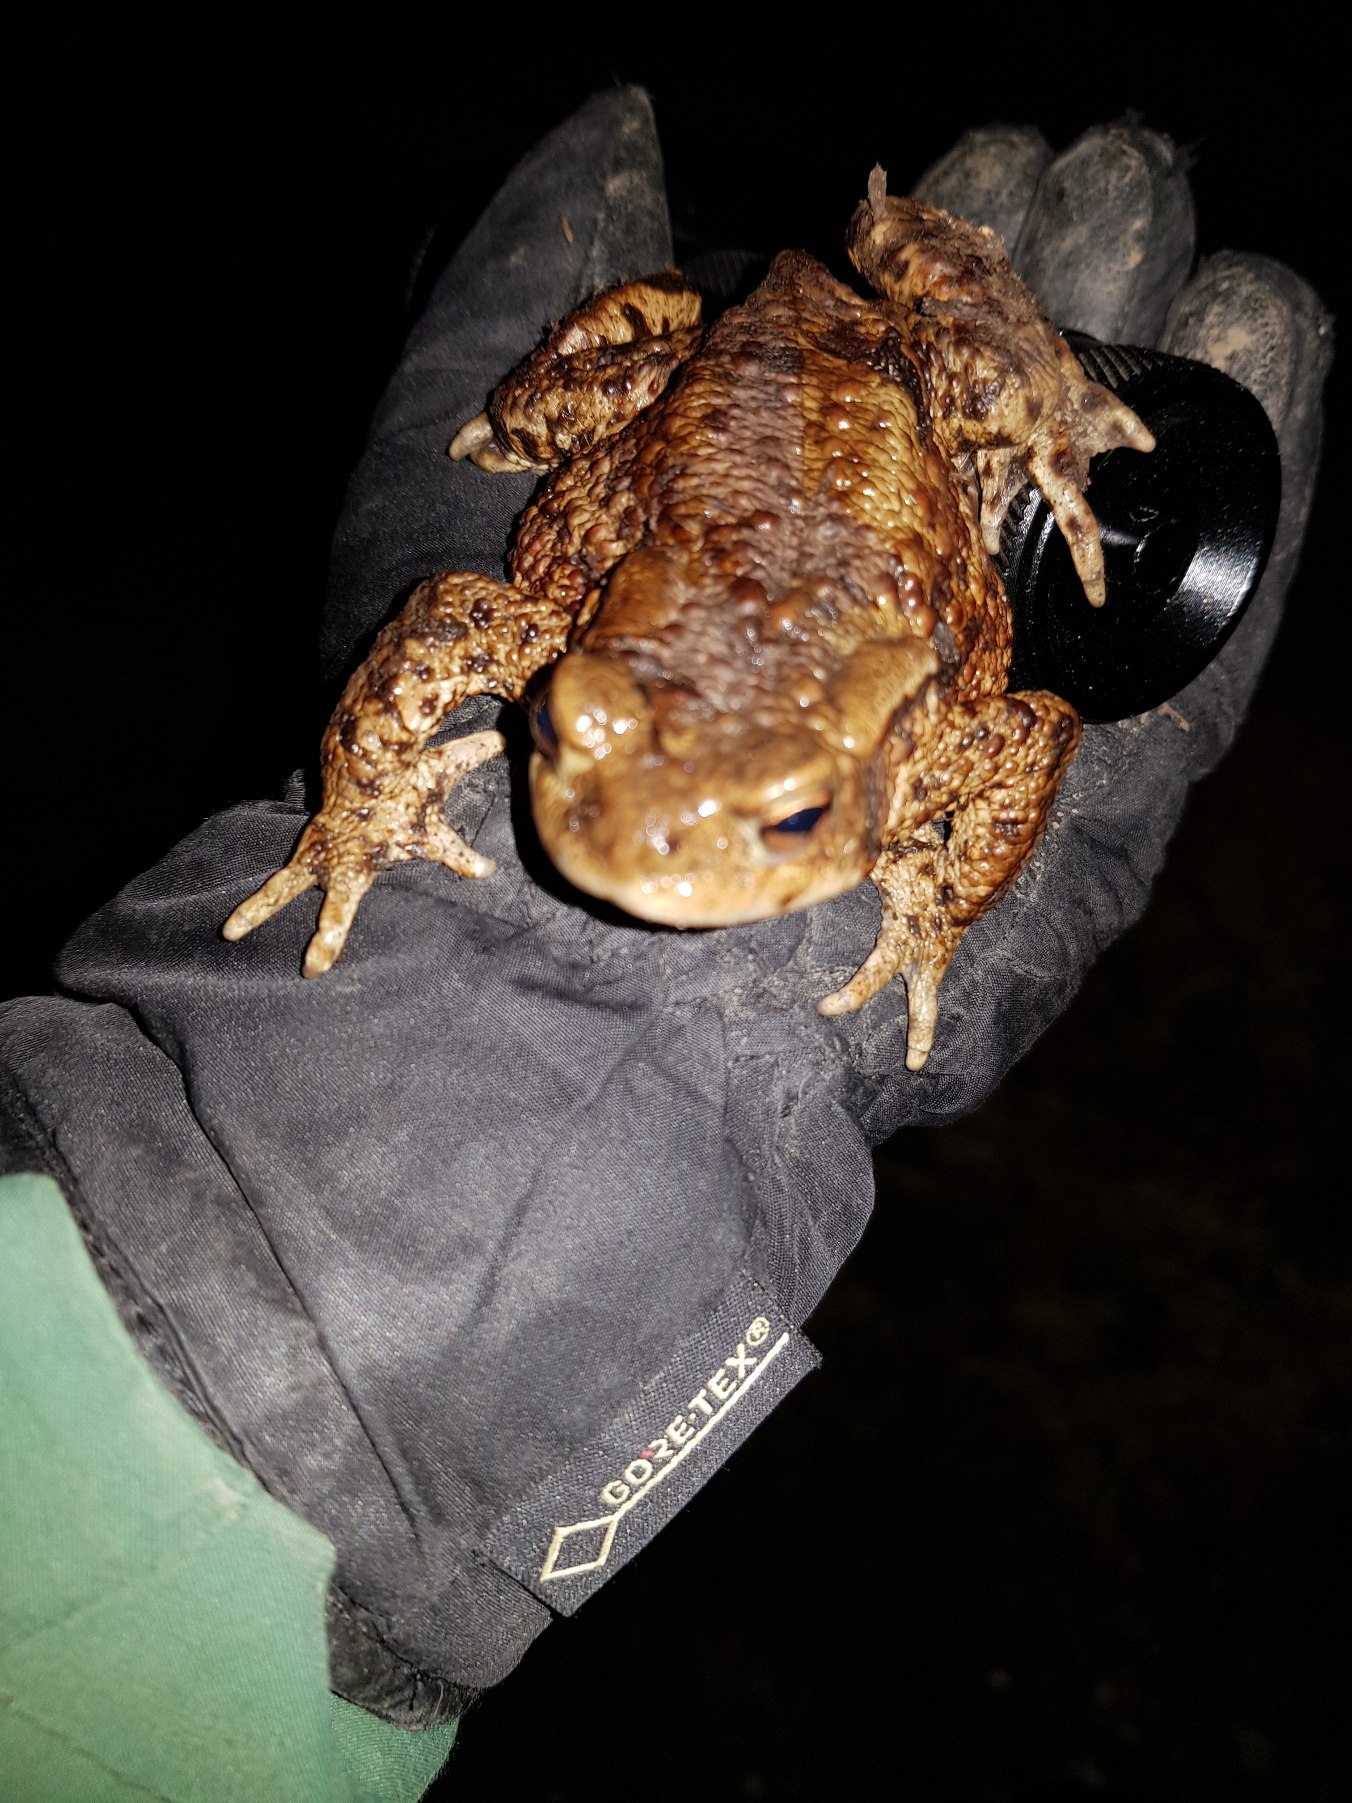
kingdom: Animalia
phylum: Chordata
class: Amphibia
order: Anura
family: Bufonidae
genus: Bufo
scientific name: Bufo bufo
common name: Skrubtudse
